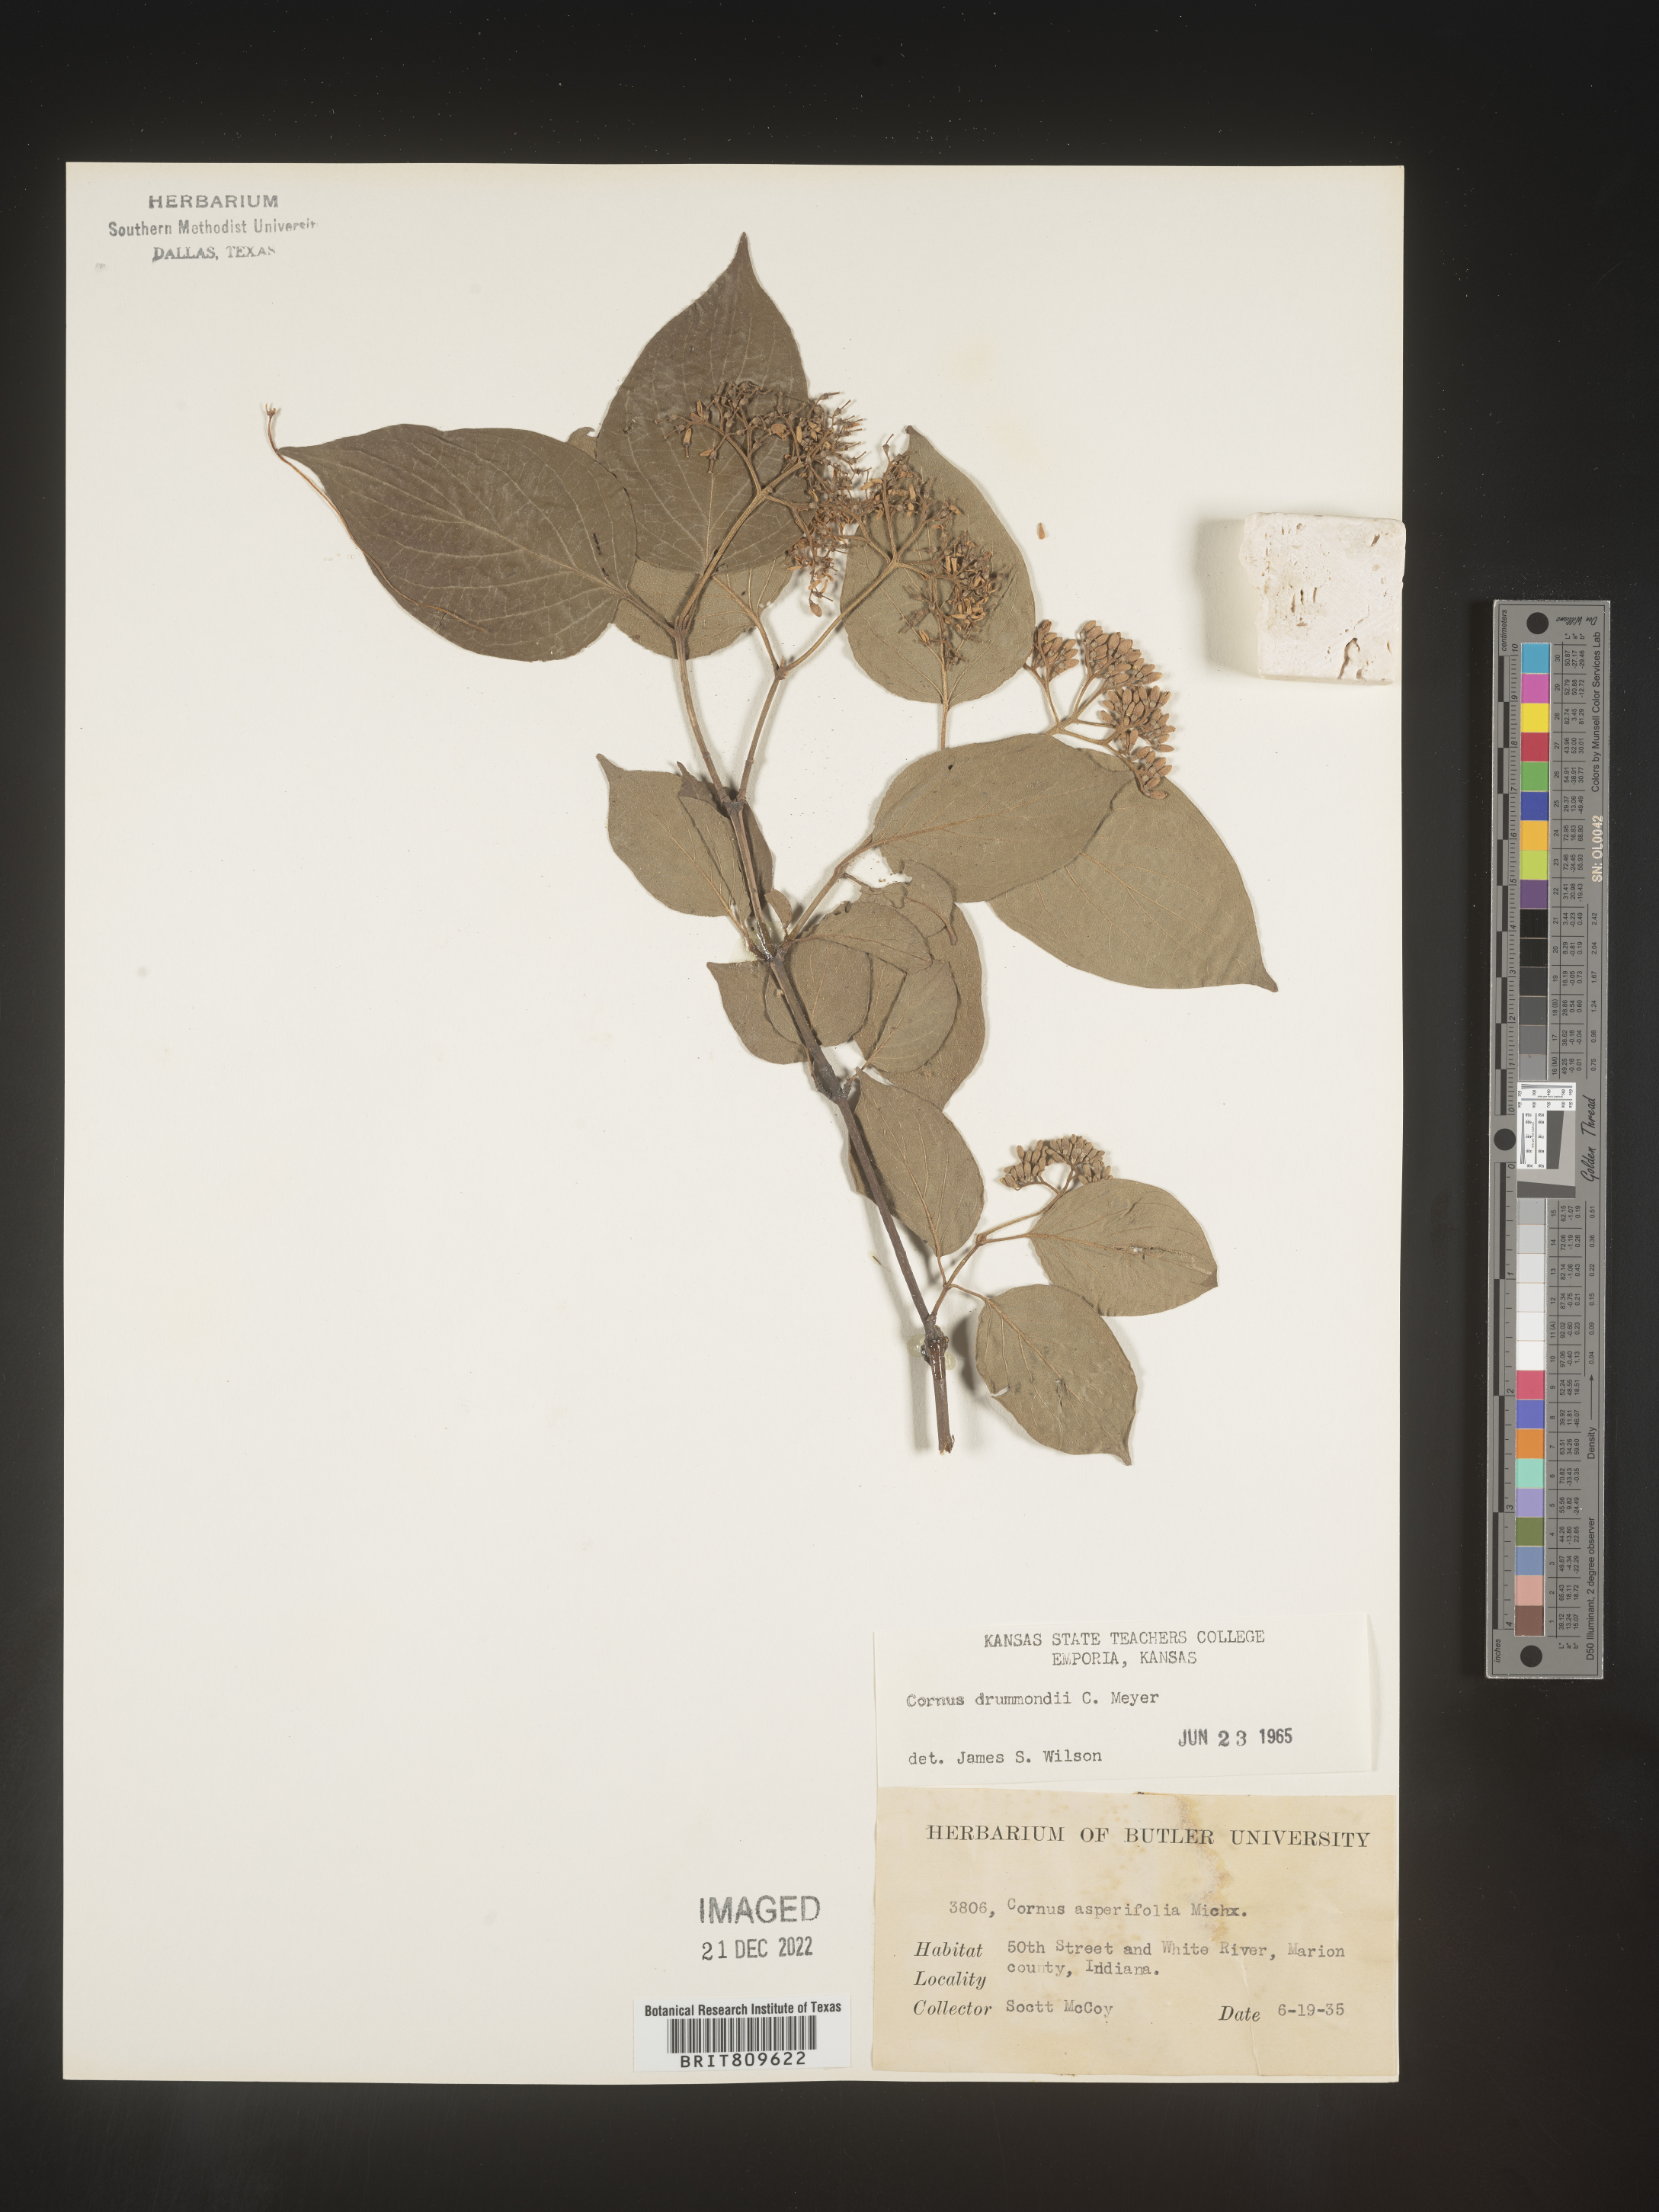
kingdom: Plantae
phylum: Tracheophyta
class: Magnoliopsida
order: Cornales
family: Cornaceae
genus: Cornus
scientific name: Cornus drummondii
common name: Rough-leaf dogwood
